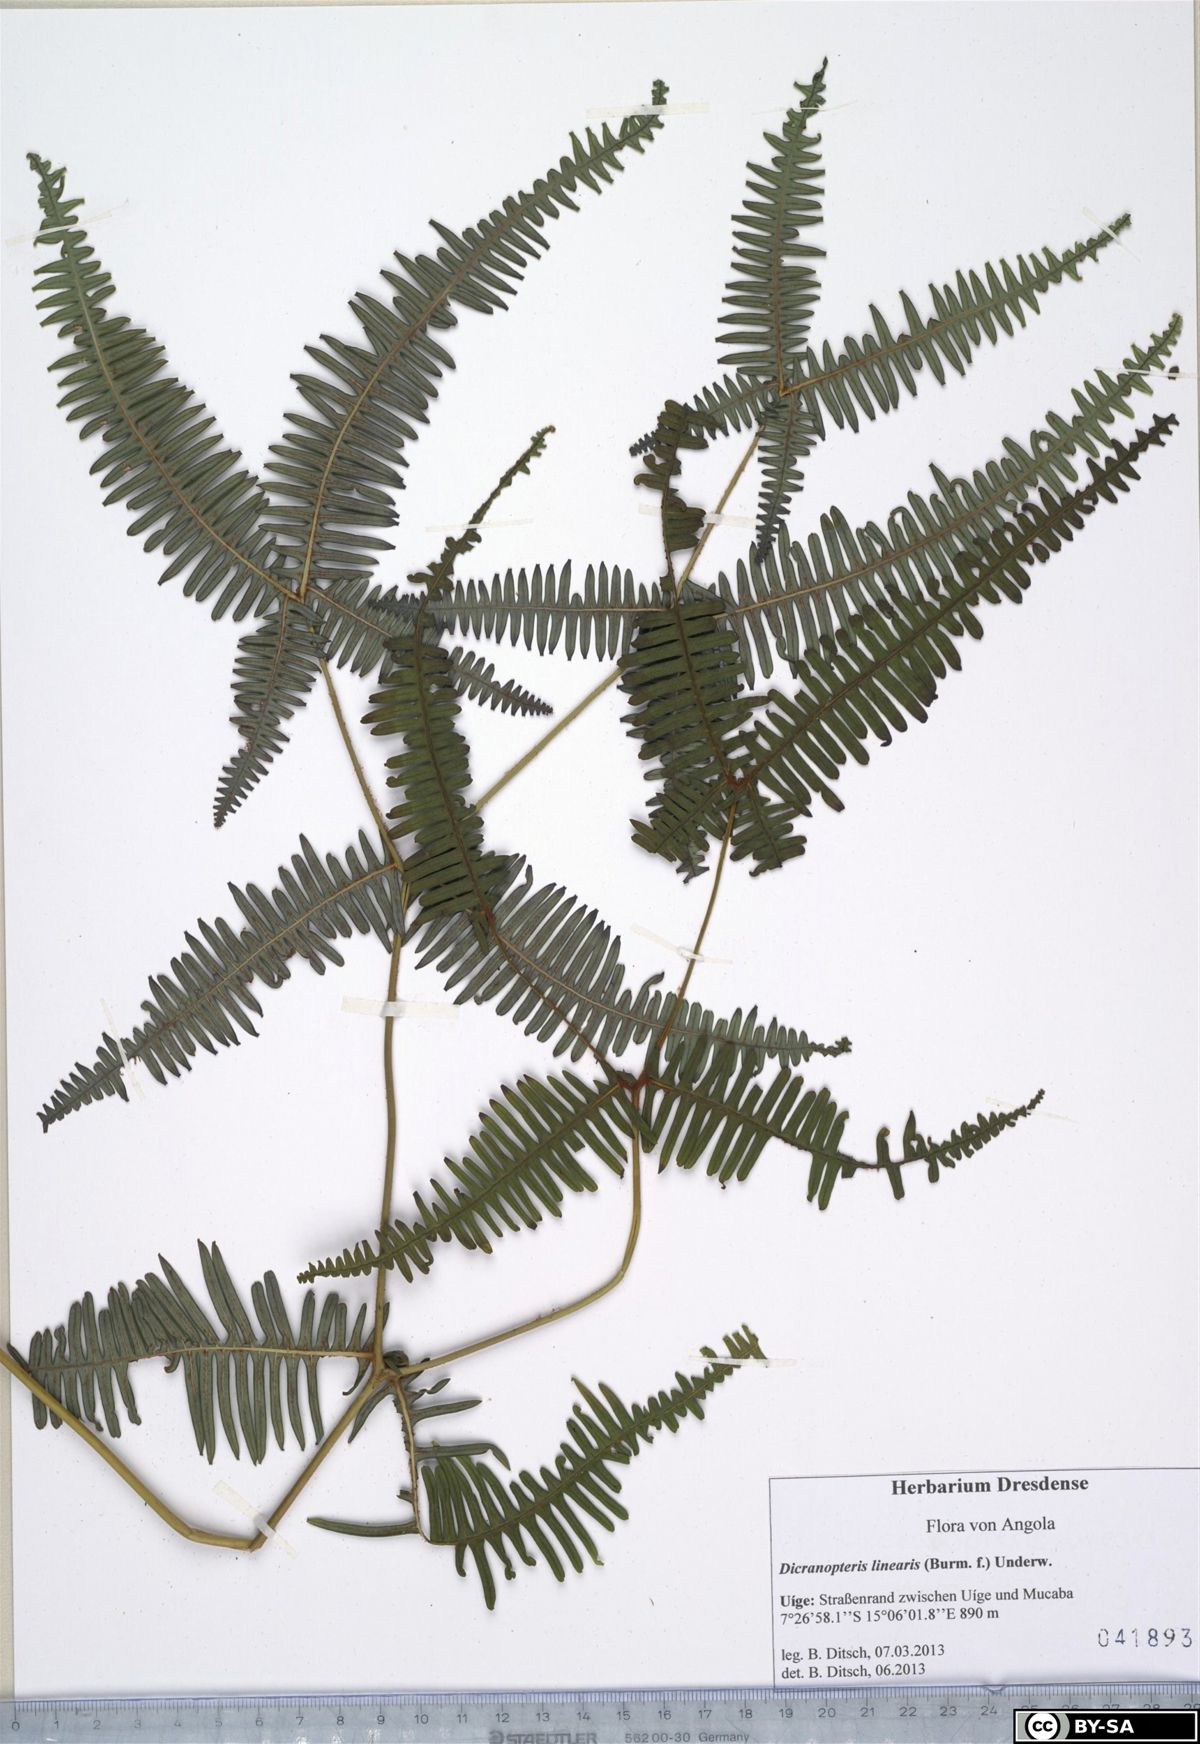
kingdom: Plantae
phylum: Tracheophyta
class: Polypodiopsida
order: Gleicheniales
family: Gleicheniaceae
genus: Dicranopteris
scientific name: Dicranopteris linearis
